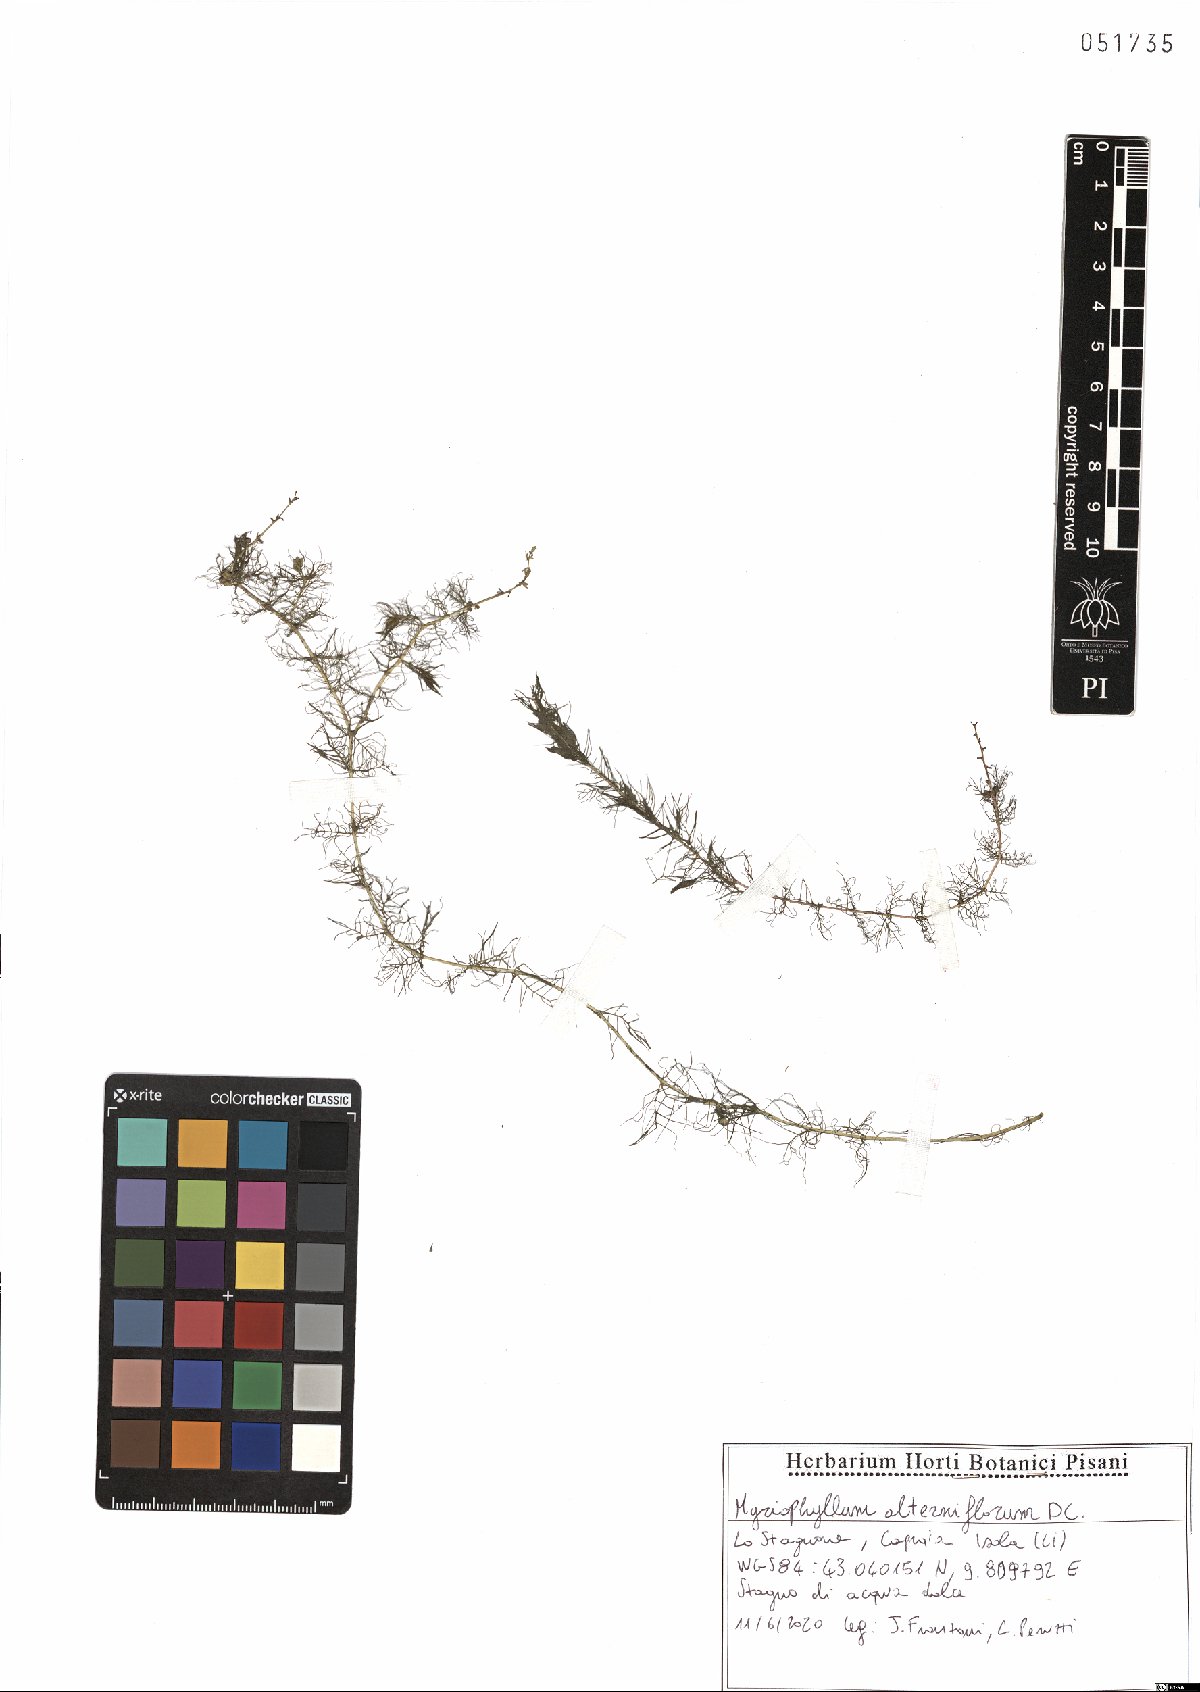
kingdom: Plantae
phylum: Tracheophyta
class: Magnoliopsida
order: Saxifragales
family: Haloragaceae
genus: Myriophyllum
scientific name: Myriophyllum alterniflorum
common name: Alternate water-milfoil
